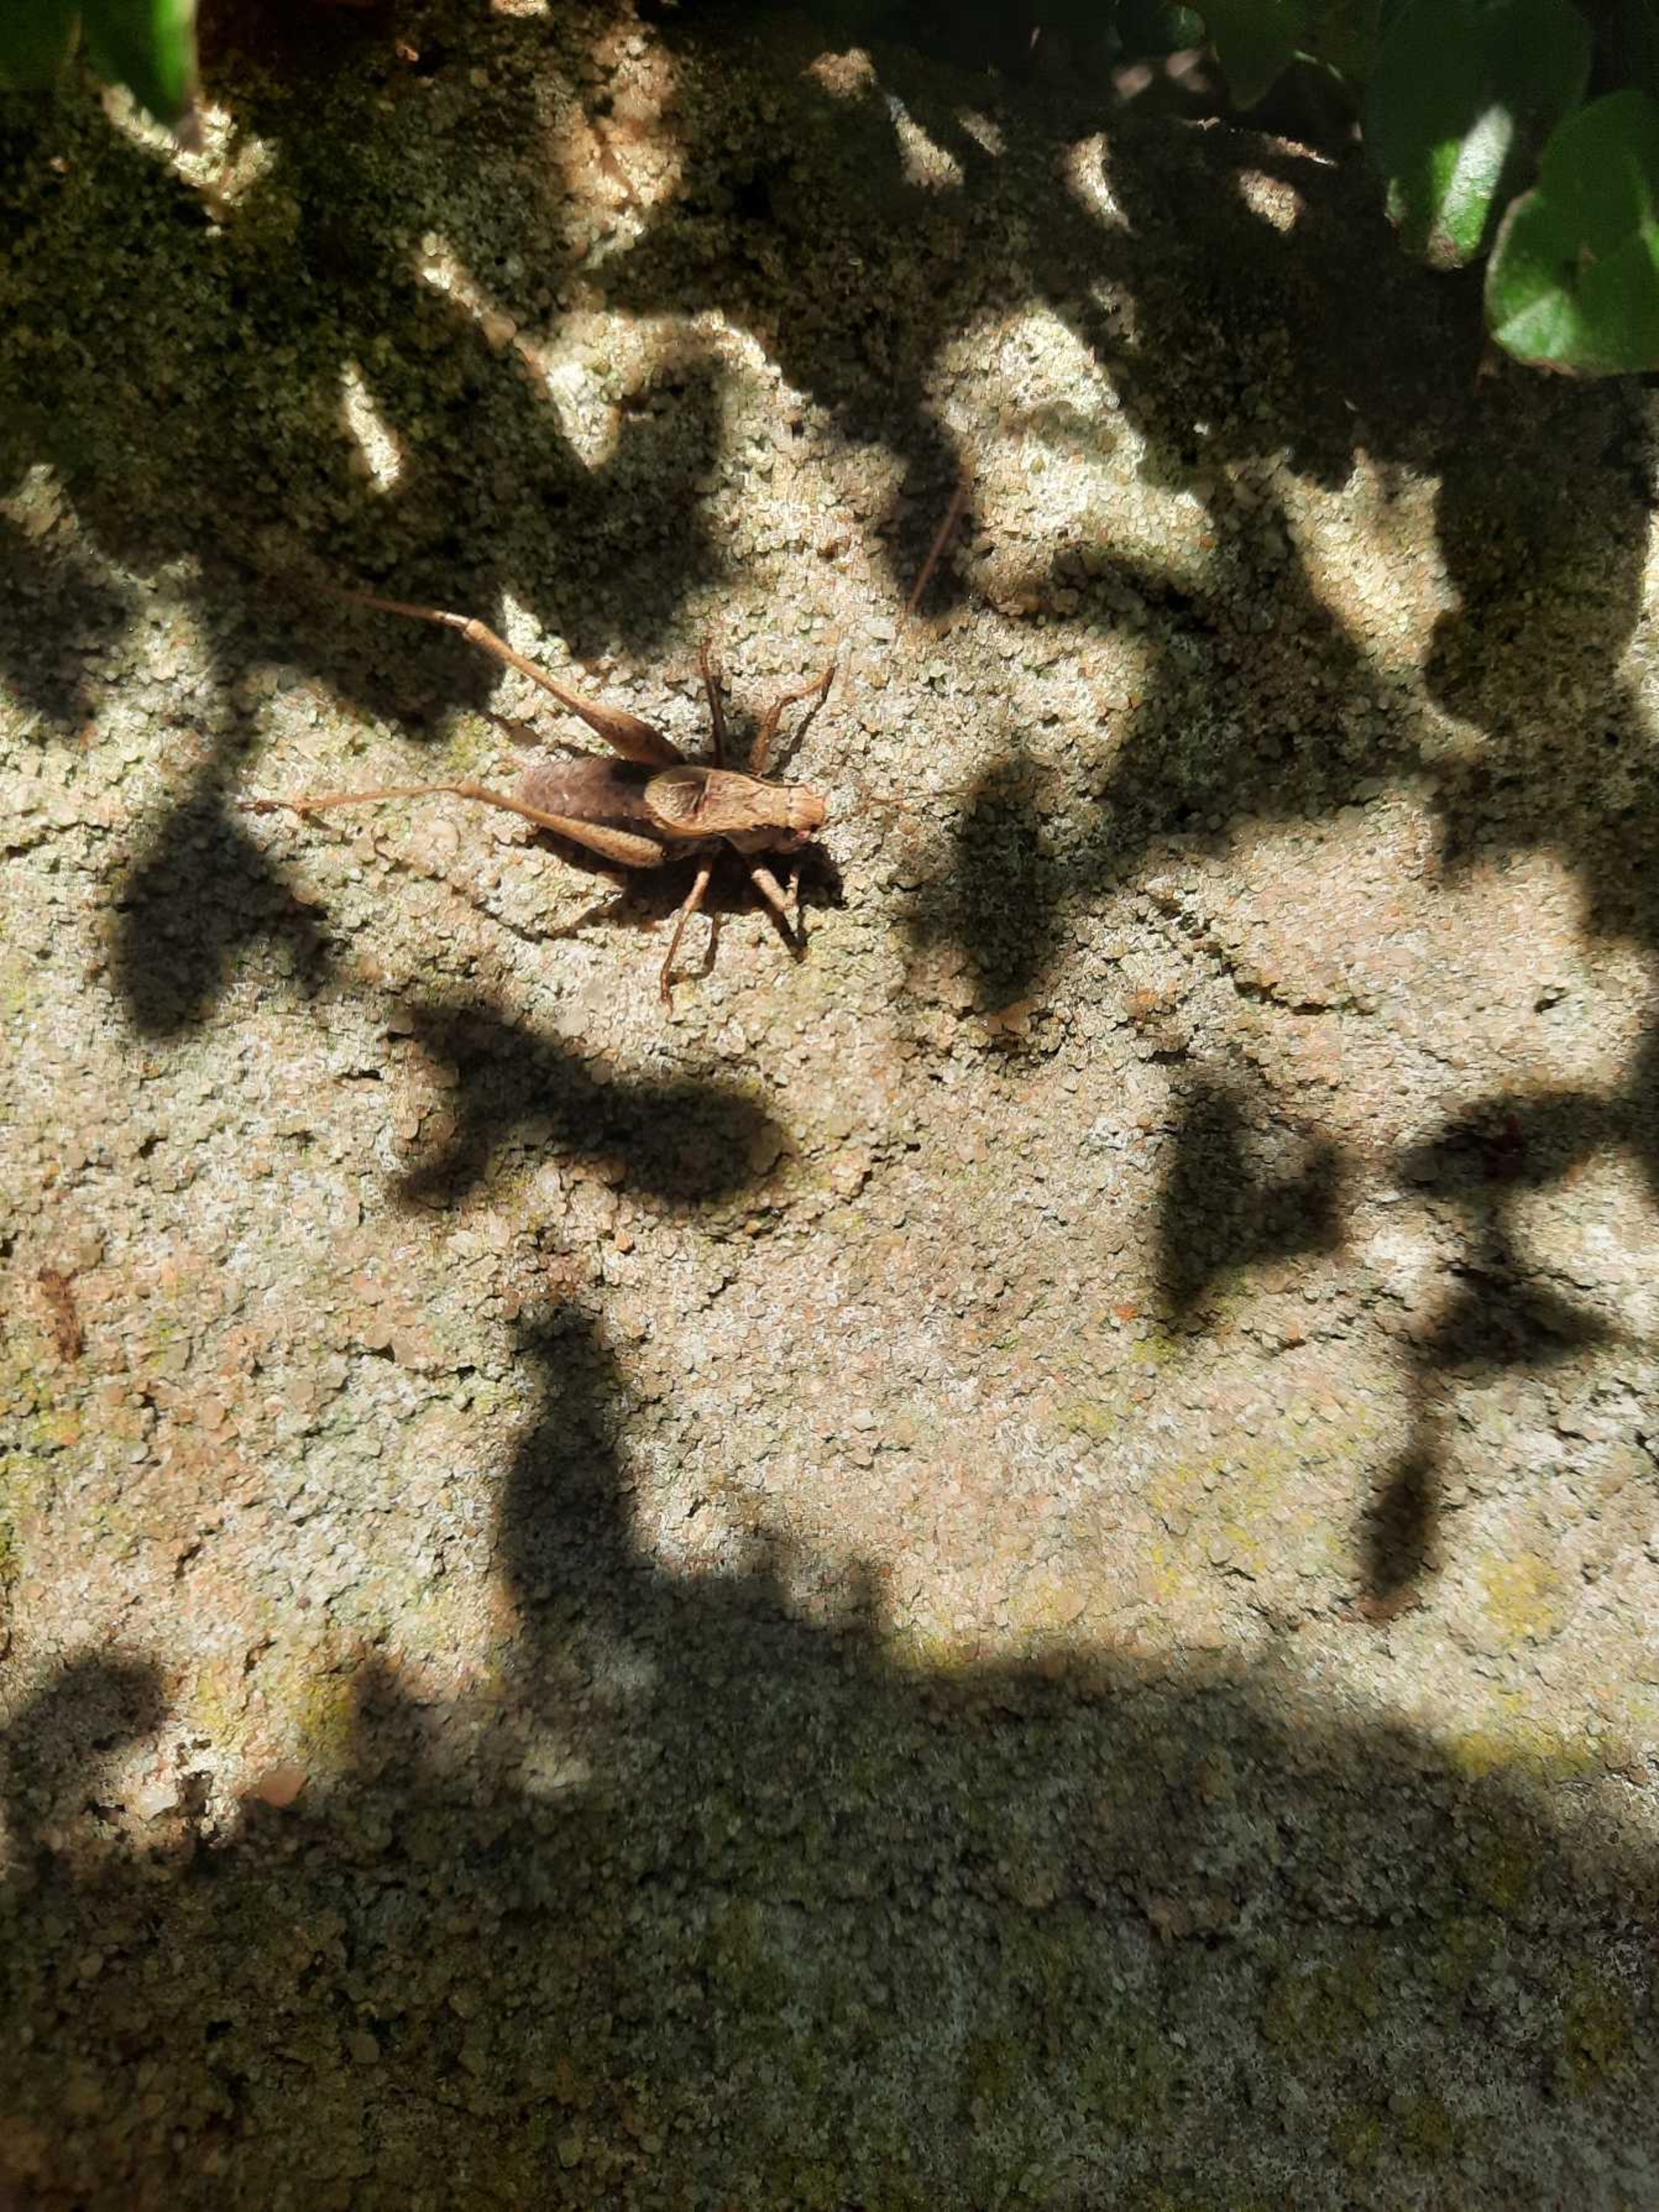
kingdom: Animalia
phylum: Arthropoda
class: Insecta
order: Orthoptera
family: Tettigoniidae
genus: Pholidoptera
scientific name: Pholidoptera griseoaptera
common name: Buskgræshoppe
